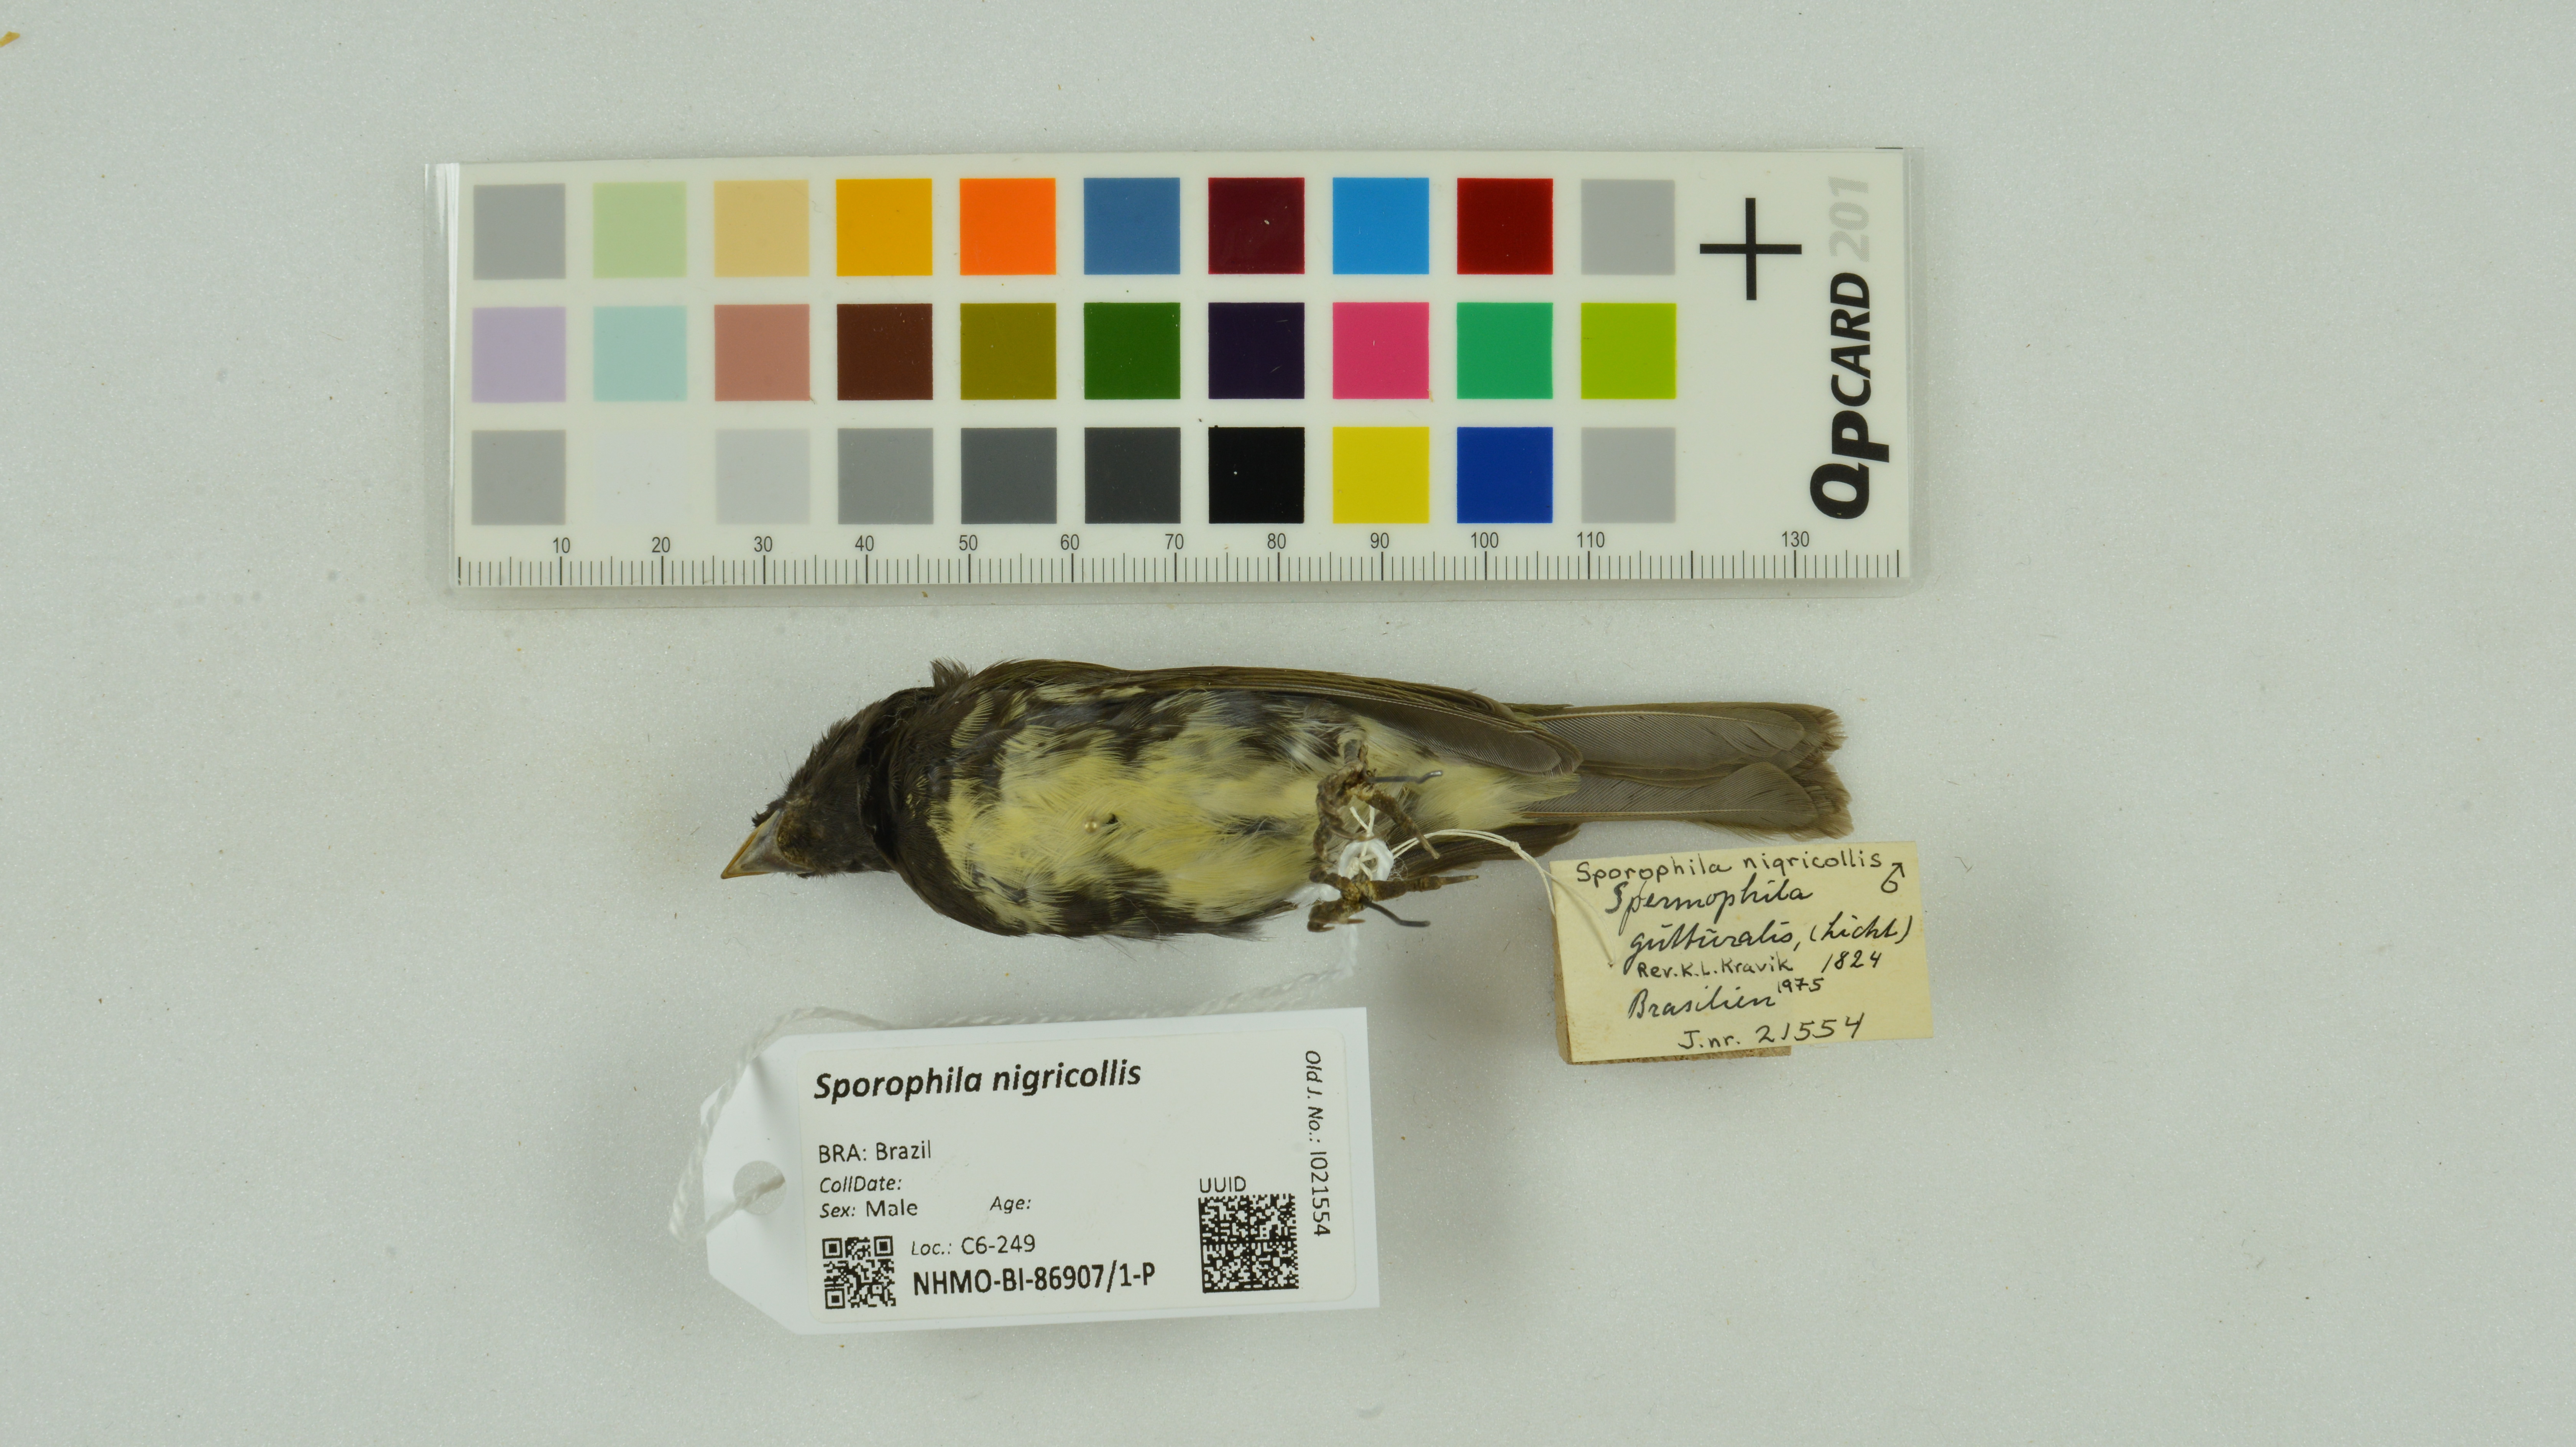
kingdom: Animalia
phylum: Chordata
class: Aves
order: Passeriformes
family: Thraupidae
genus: Sporophila
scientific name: Sporophila nigricollis
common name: Yellow-bellied seedeater
